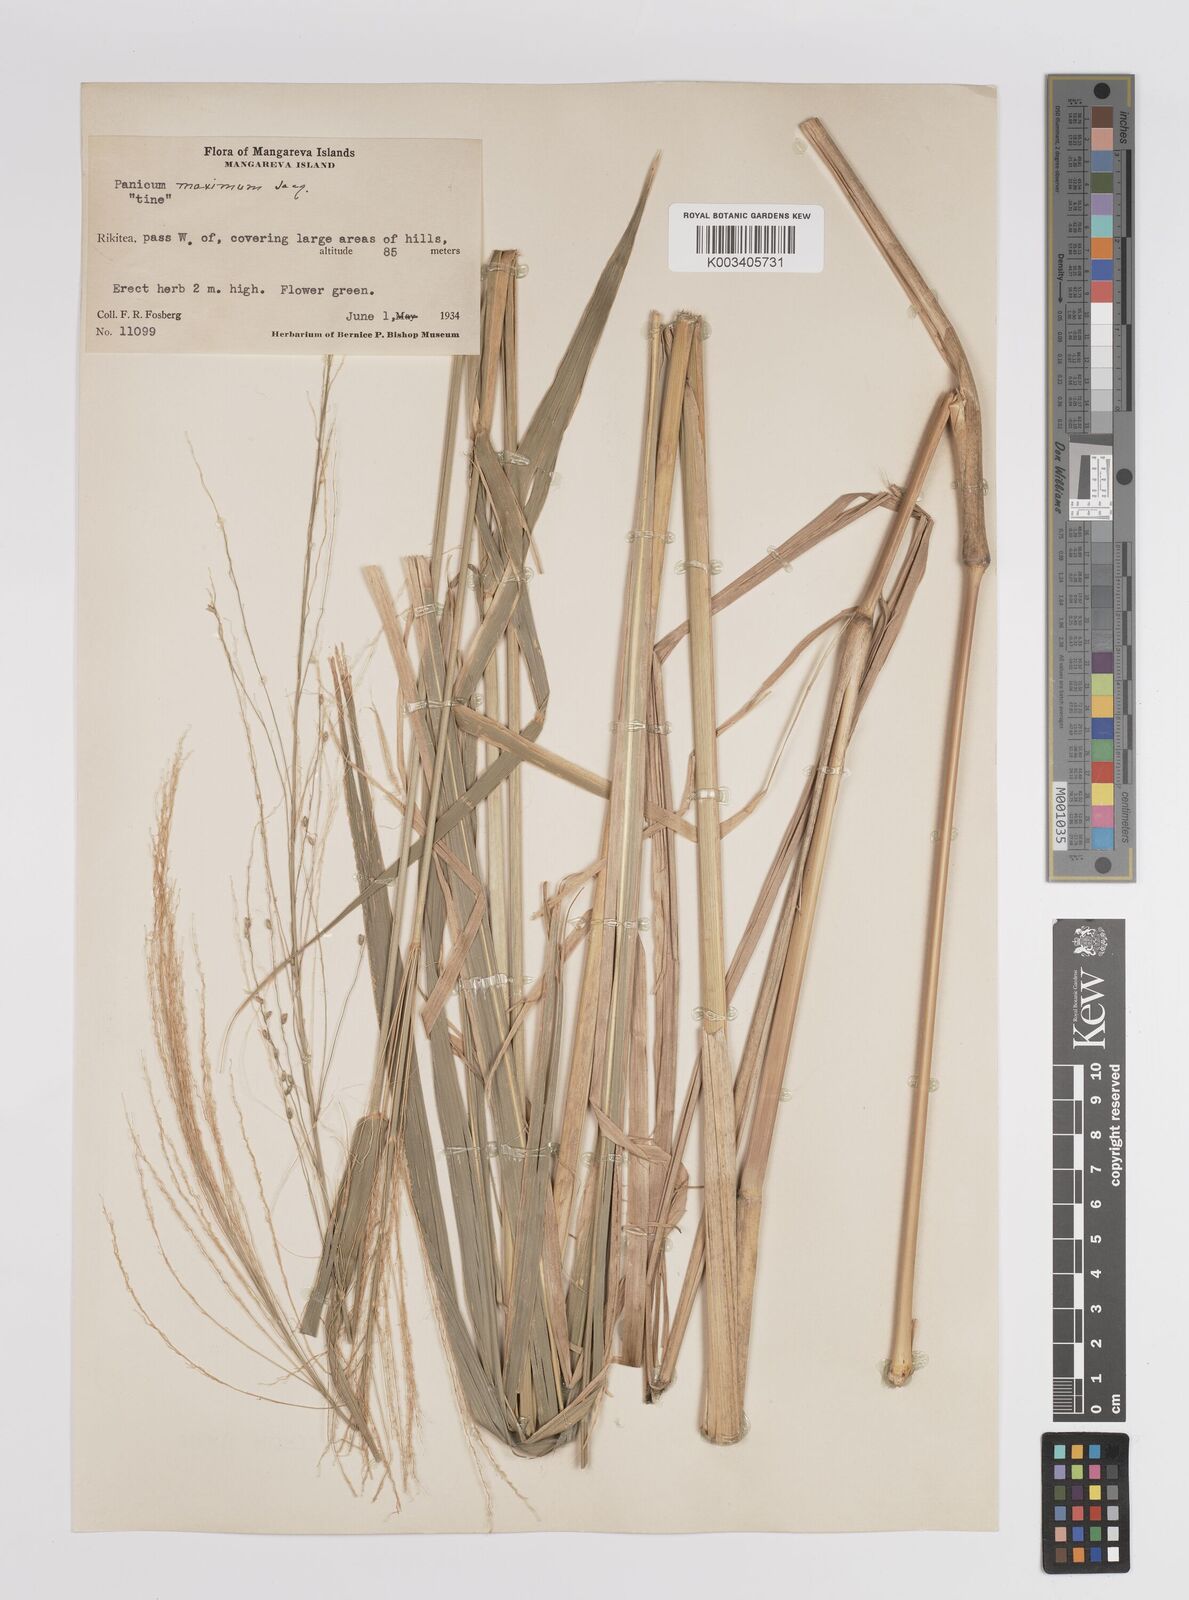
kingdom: Plantae
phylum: Tracheophyta
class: Liliopsida
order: Poales
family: Poaceae
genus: Megathyrsus
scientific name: Megathyrsus maximus
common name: Guineagrass
